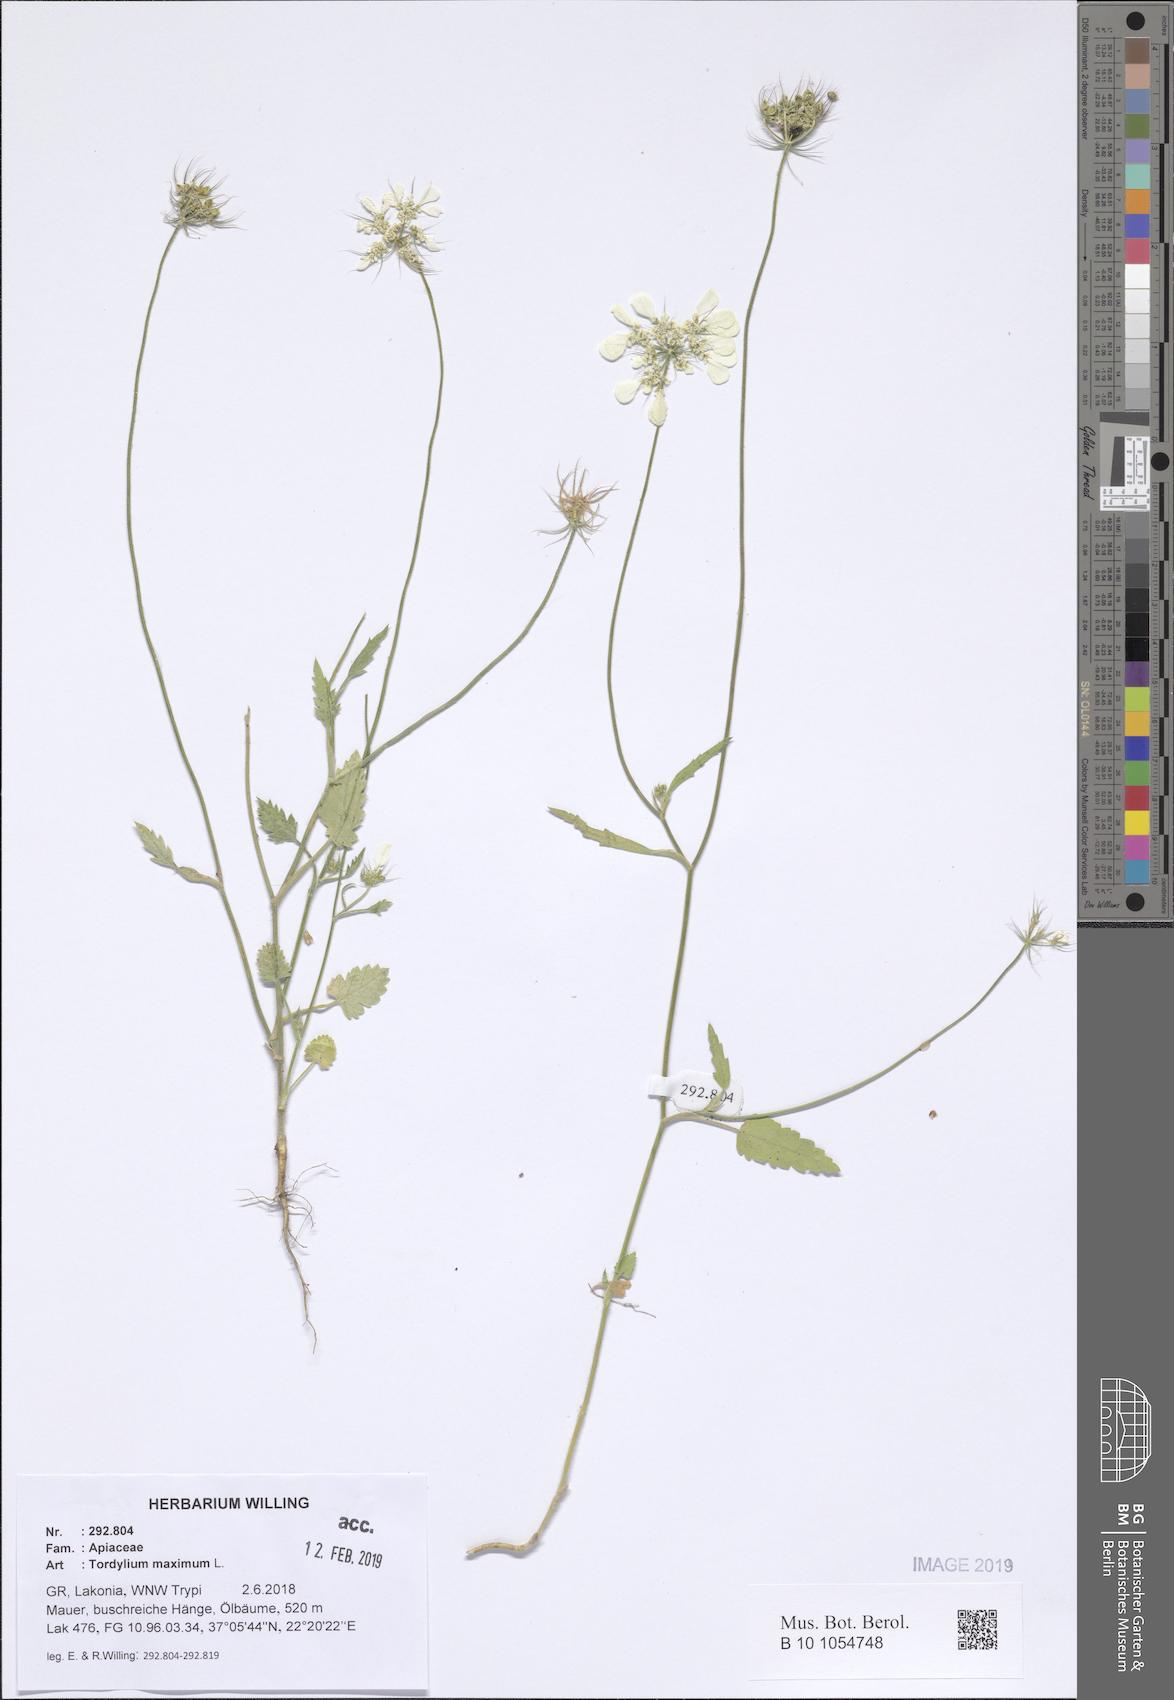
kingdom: Plantae
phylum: Tracheophyta
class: Magnoliopsida
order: Apiales
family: Apiaceae
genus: Tordylium
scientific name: Tordylium maximum
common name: Hartwort
